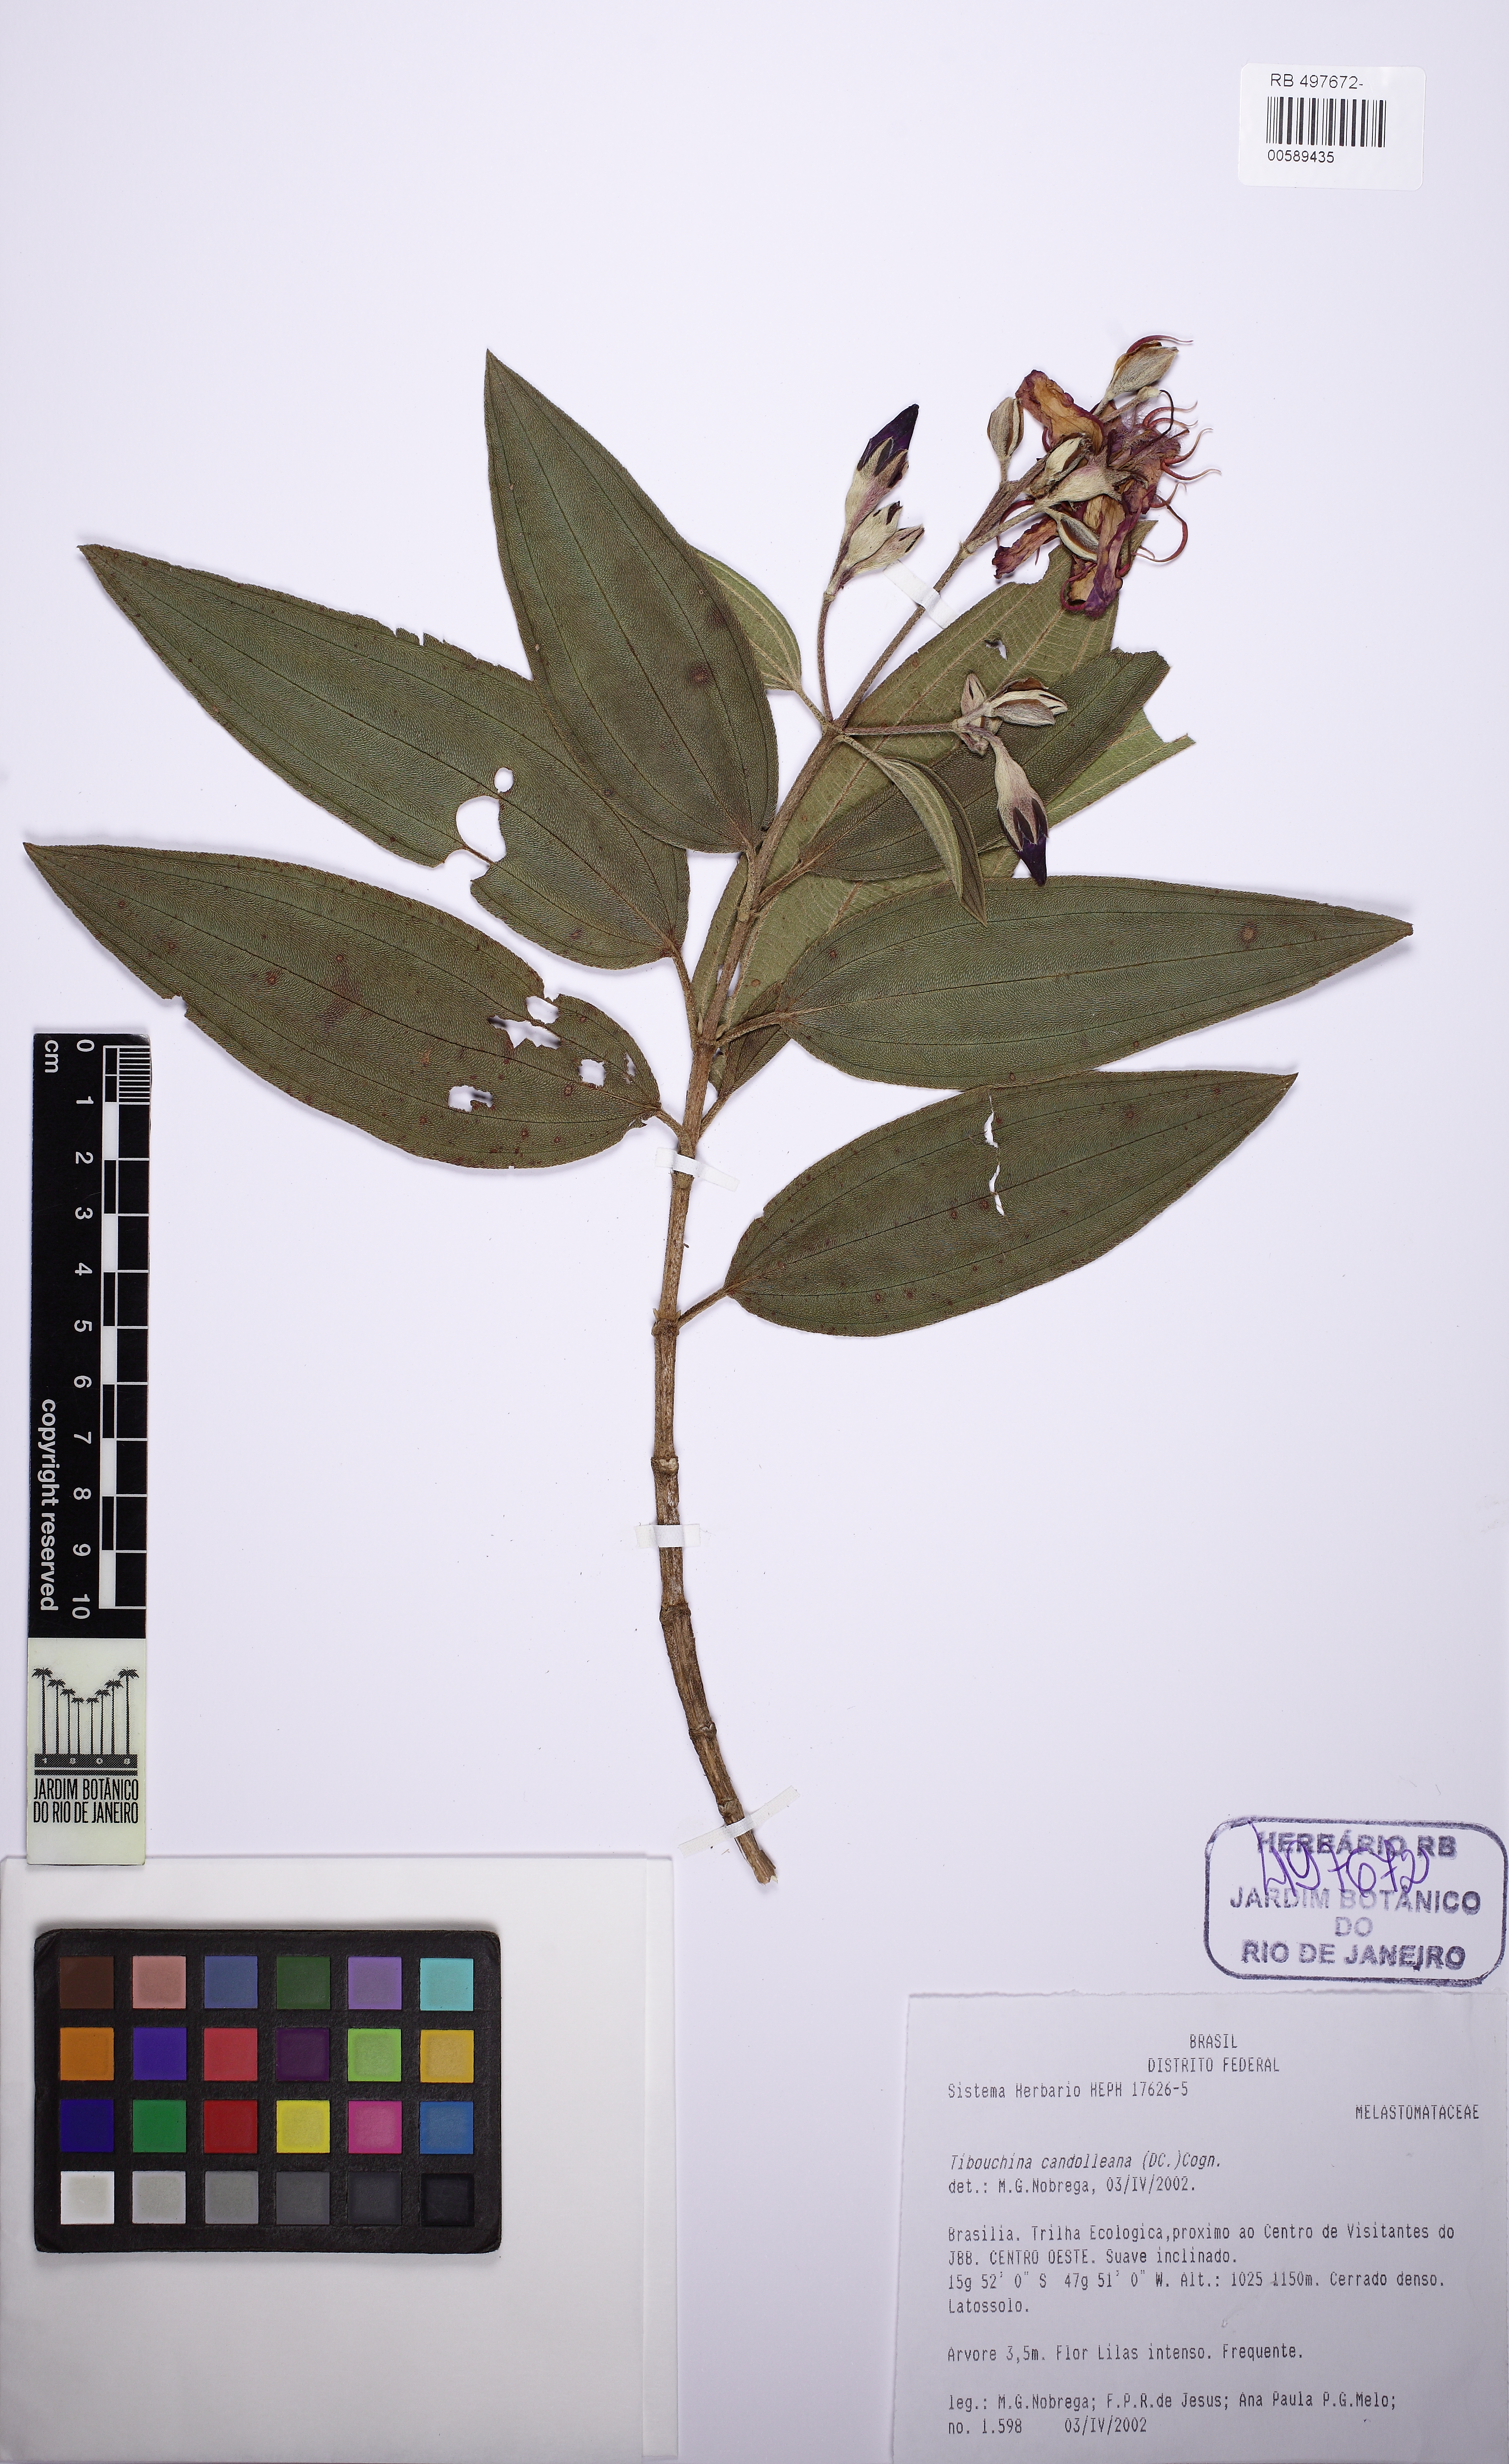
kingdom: Plantae
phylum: Tracheophyta
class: Magnoliopsida
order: Myrtales
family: Melastomataceae
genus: Pleroma
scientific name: Pleroma candolleanum
